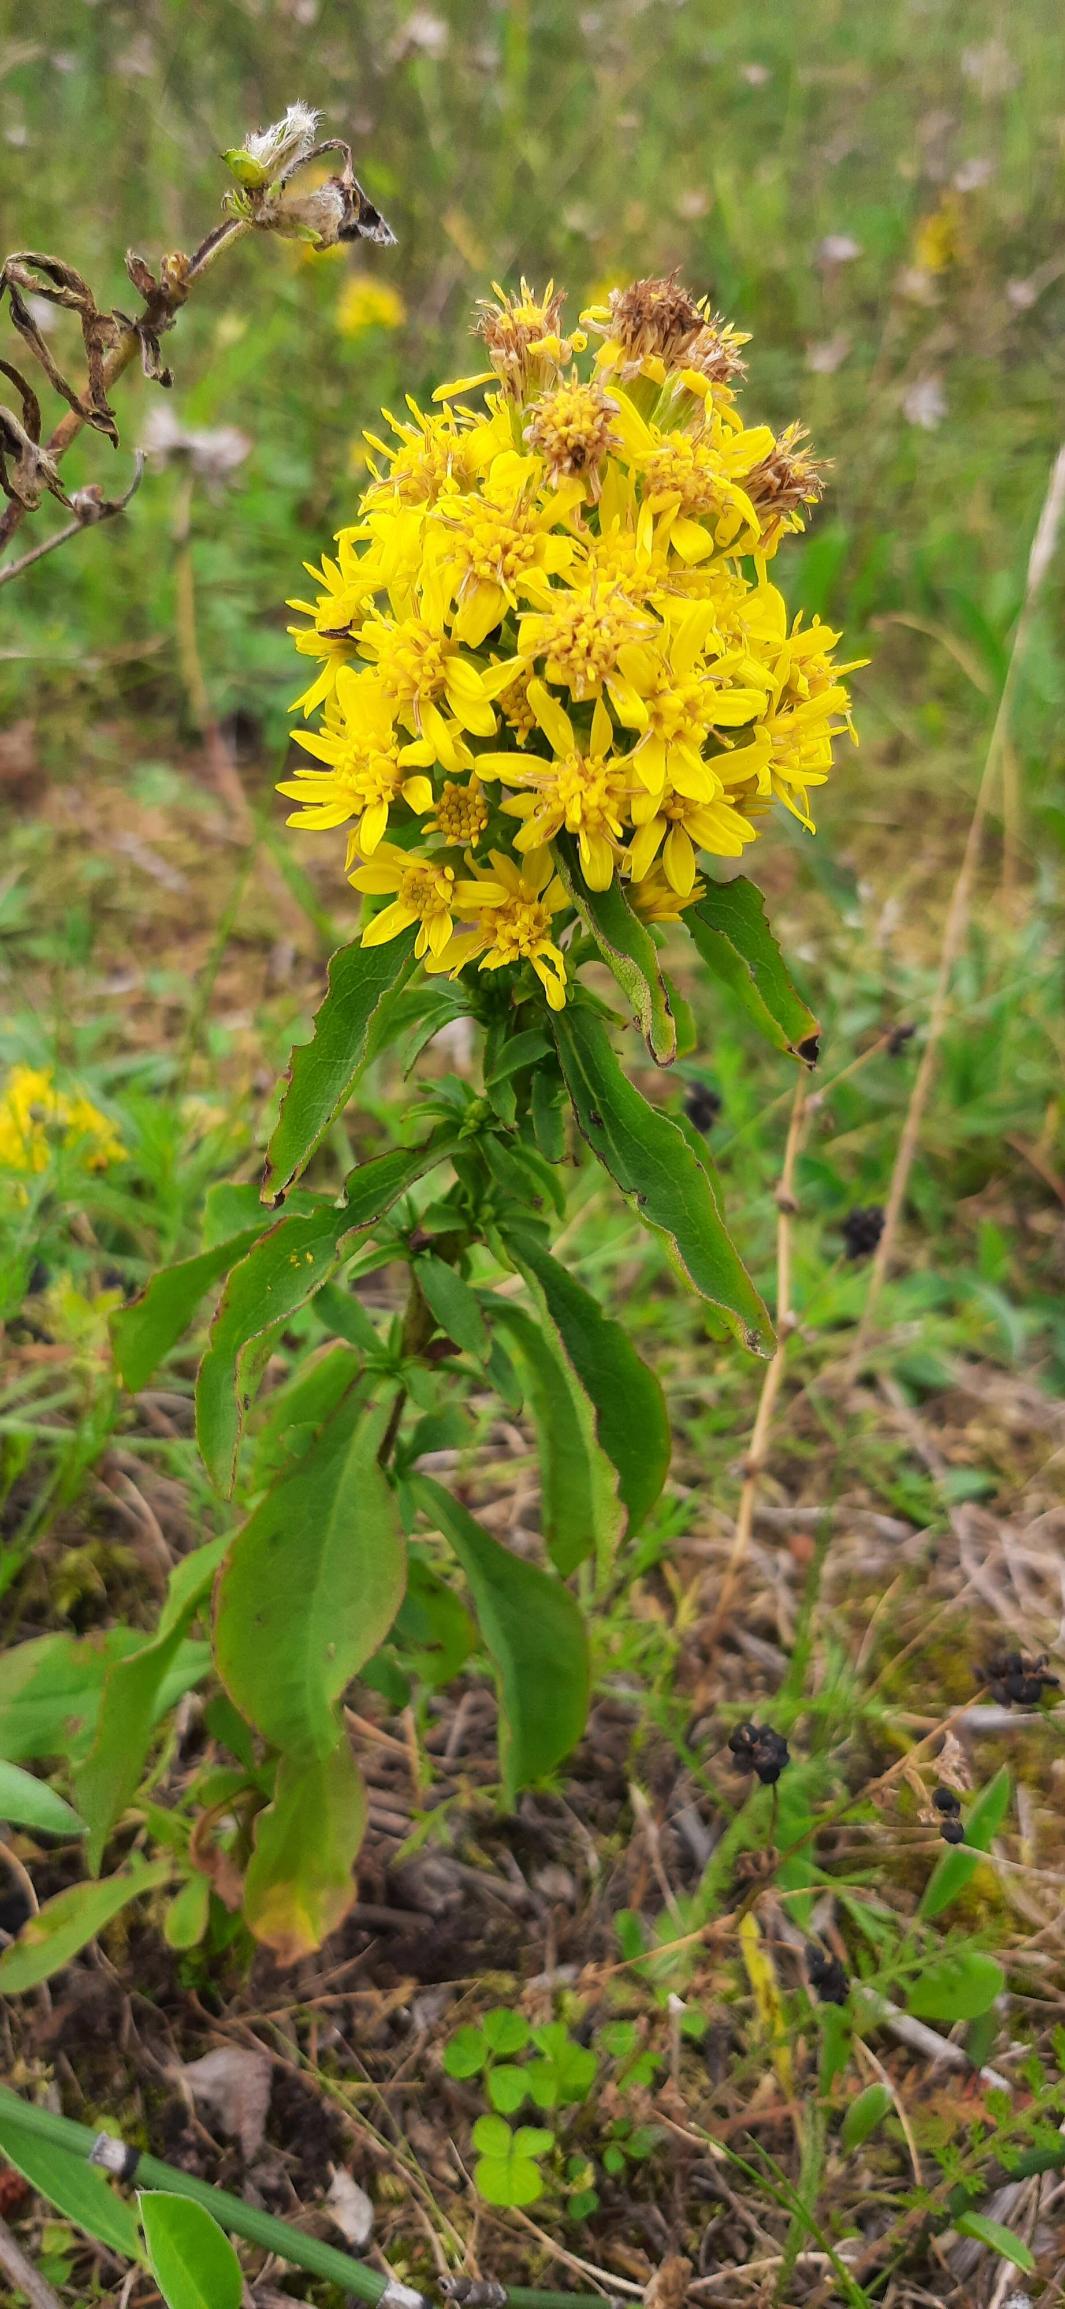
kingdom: Plantae
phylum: Tracheophyta
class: Magnoliopsida
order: Asterales
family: Asteraceae
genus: Solidago
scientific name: Solidago virgaurea
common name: Almindelig gyldenris
